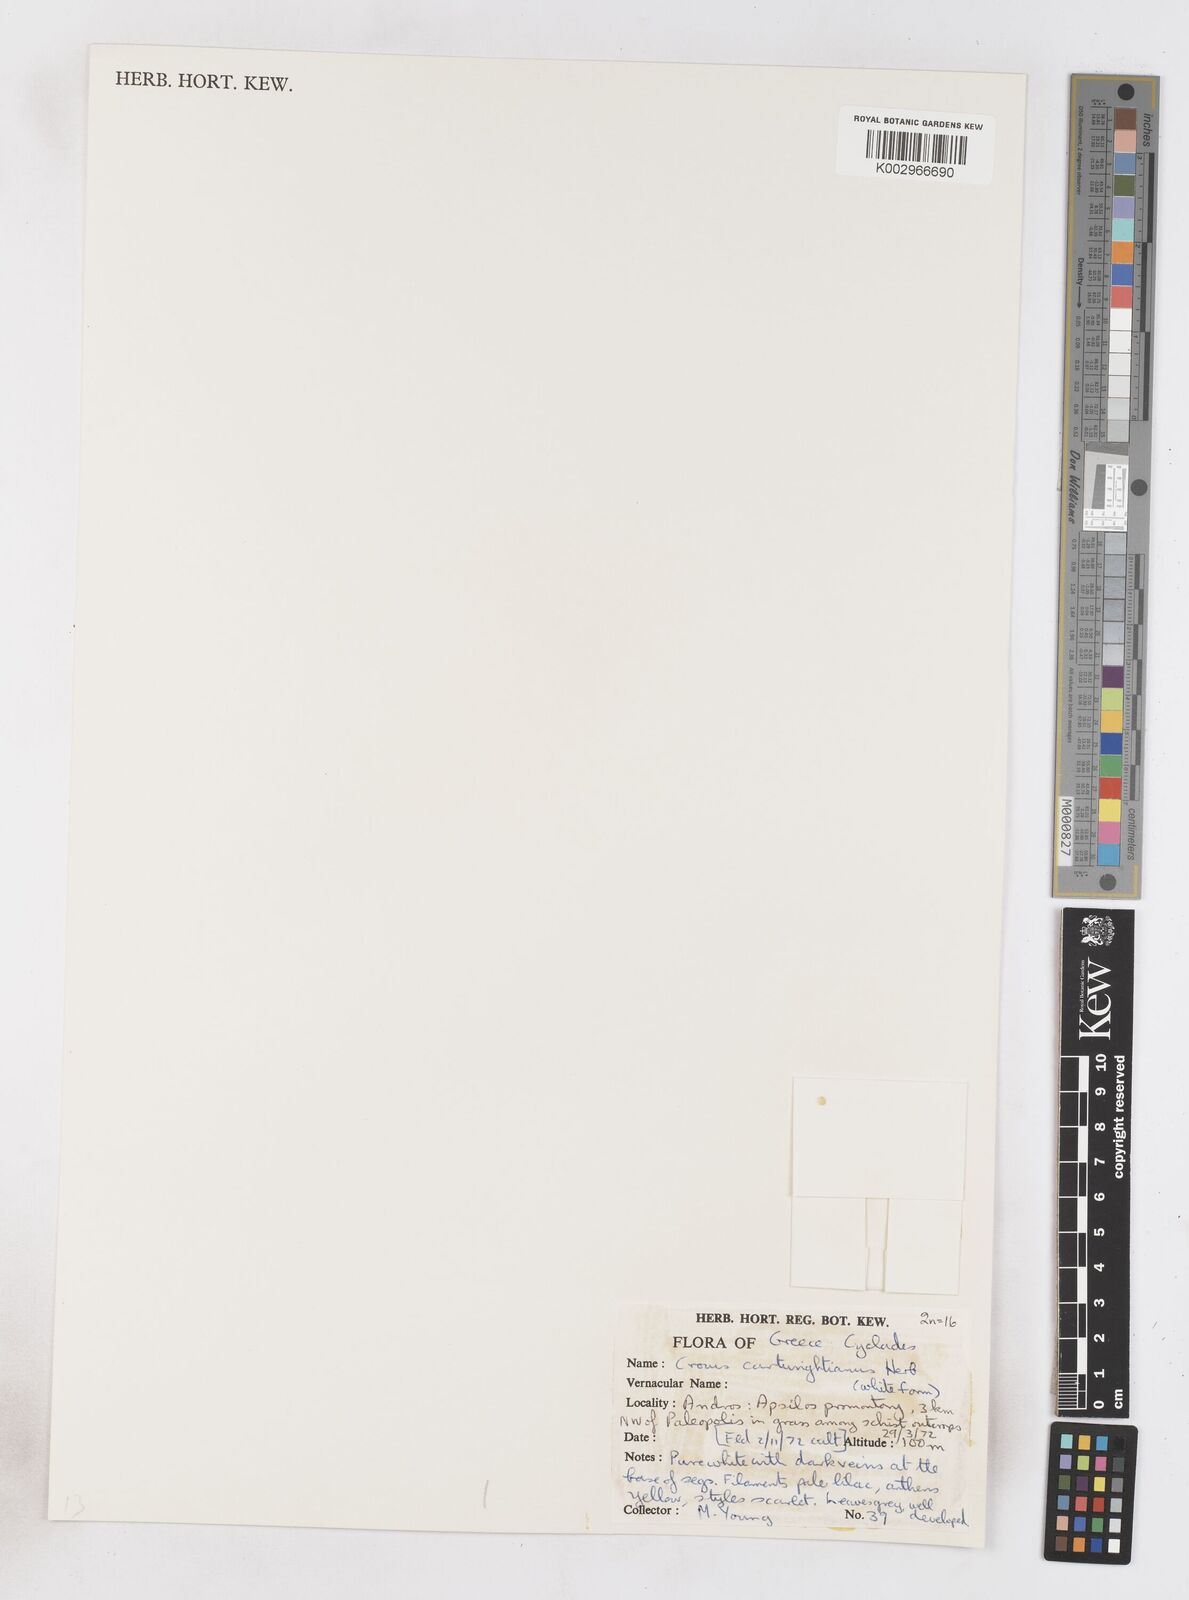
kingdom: Plantae
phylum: Tracheophyta
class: Liliopsida
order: Asparagales
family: Iridaceae
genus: Crocus
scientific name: Crocus cartwrightianus
